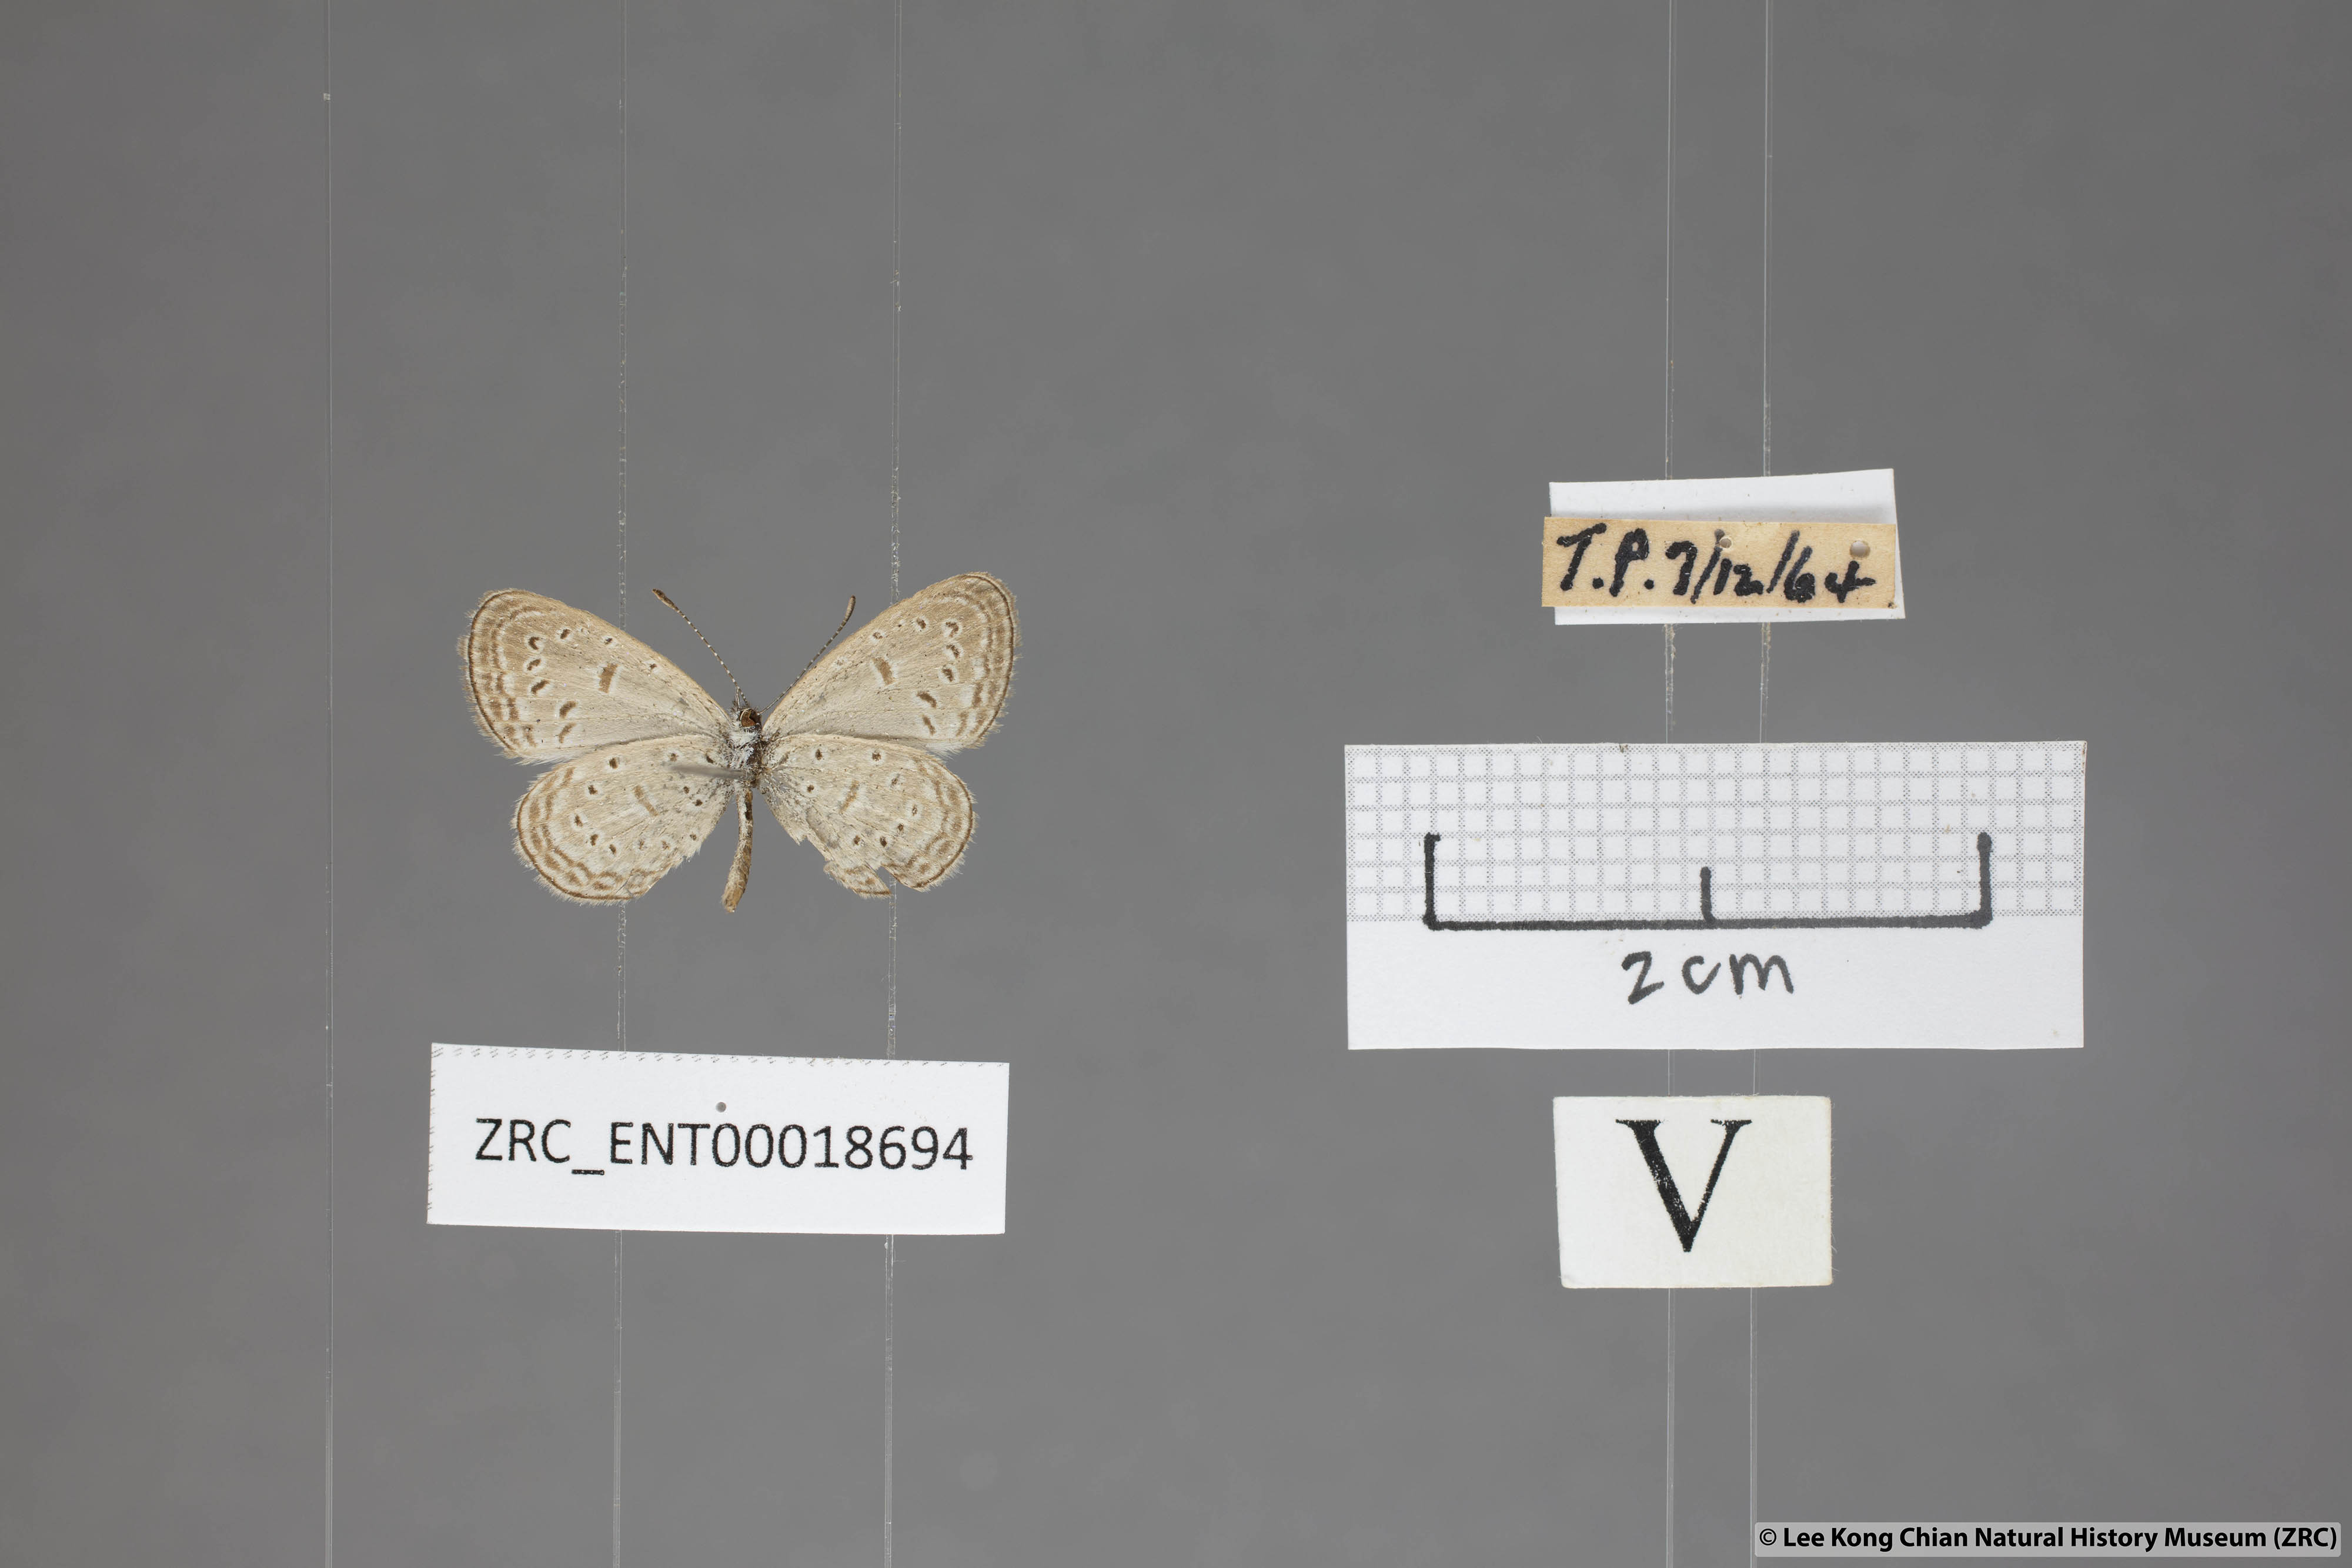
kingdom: Animalia
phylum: Arthropoda
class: Insecta
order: Lepidoptera
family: Lycaenidae
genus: Zizula
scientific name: Zizula hylax
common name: Gaika blue
